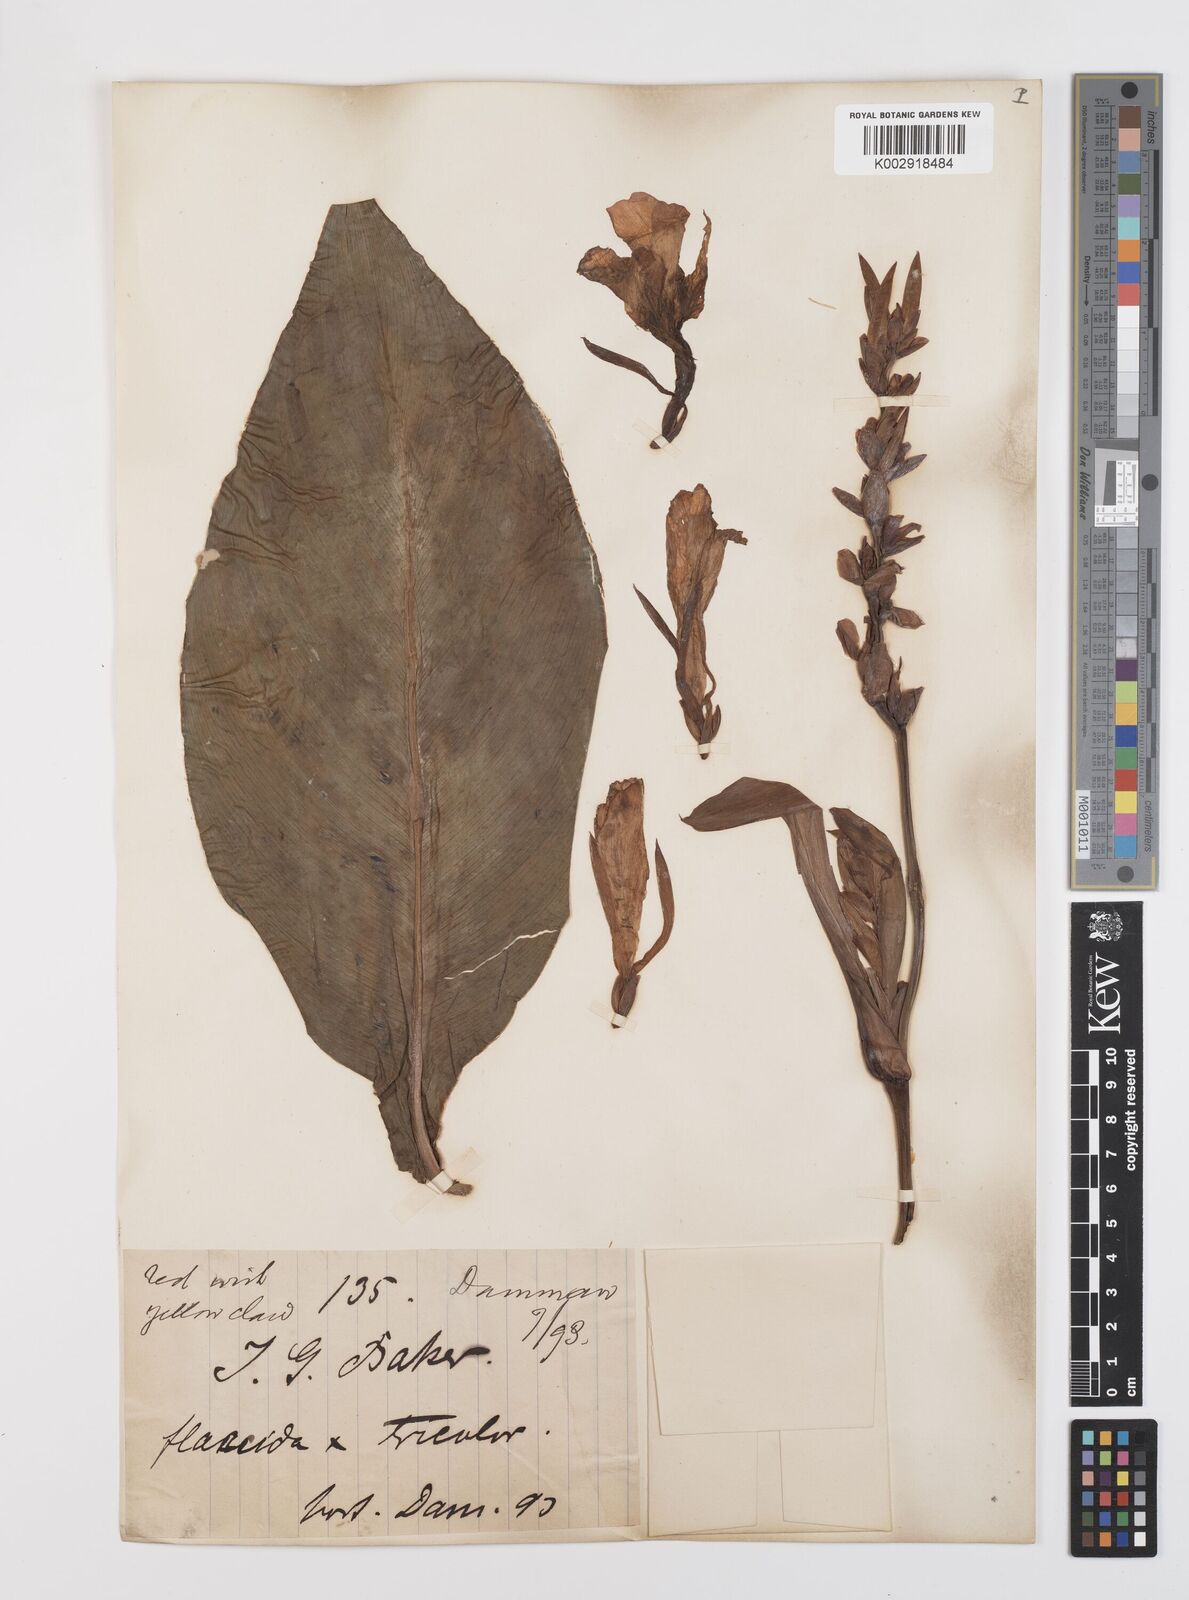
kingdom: Plantae
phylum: Tracheophyta
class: Liliopsida
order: Zingiberales
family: Cannaceae
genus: Canna
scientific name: Canna
